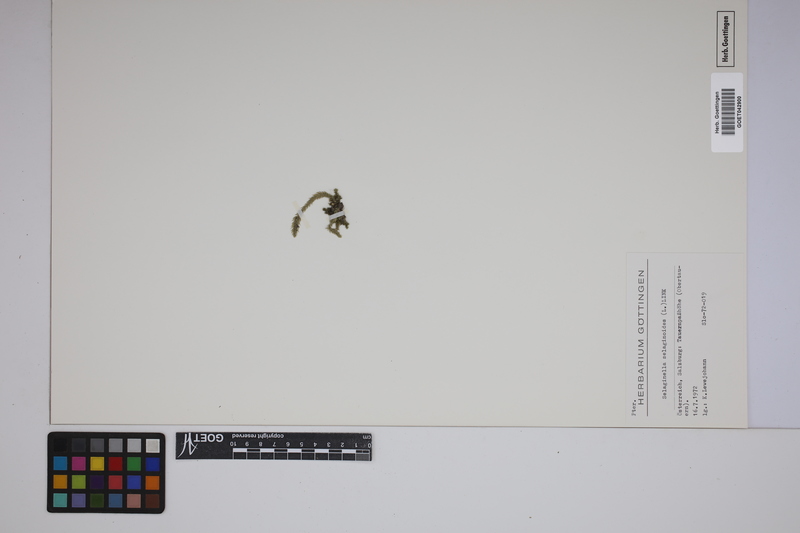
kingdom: Plantae
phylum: Tracheophyta
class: Lycopodiopsida
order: Selaginellales
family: Selaginellaceae
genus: Selaginella
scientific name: Selaginella selaginoides
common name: Prickly mountain-moss
